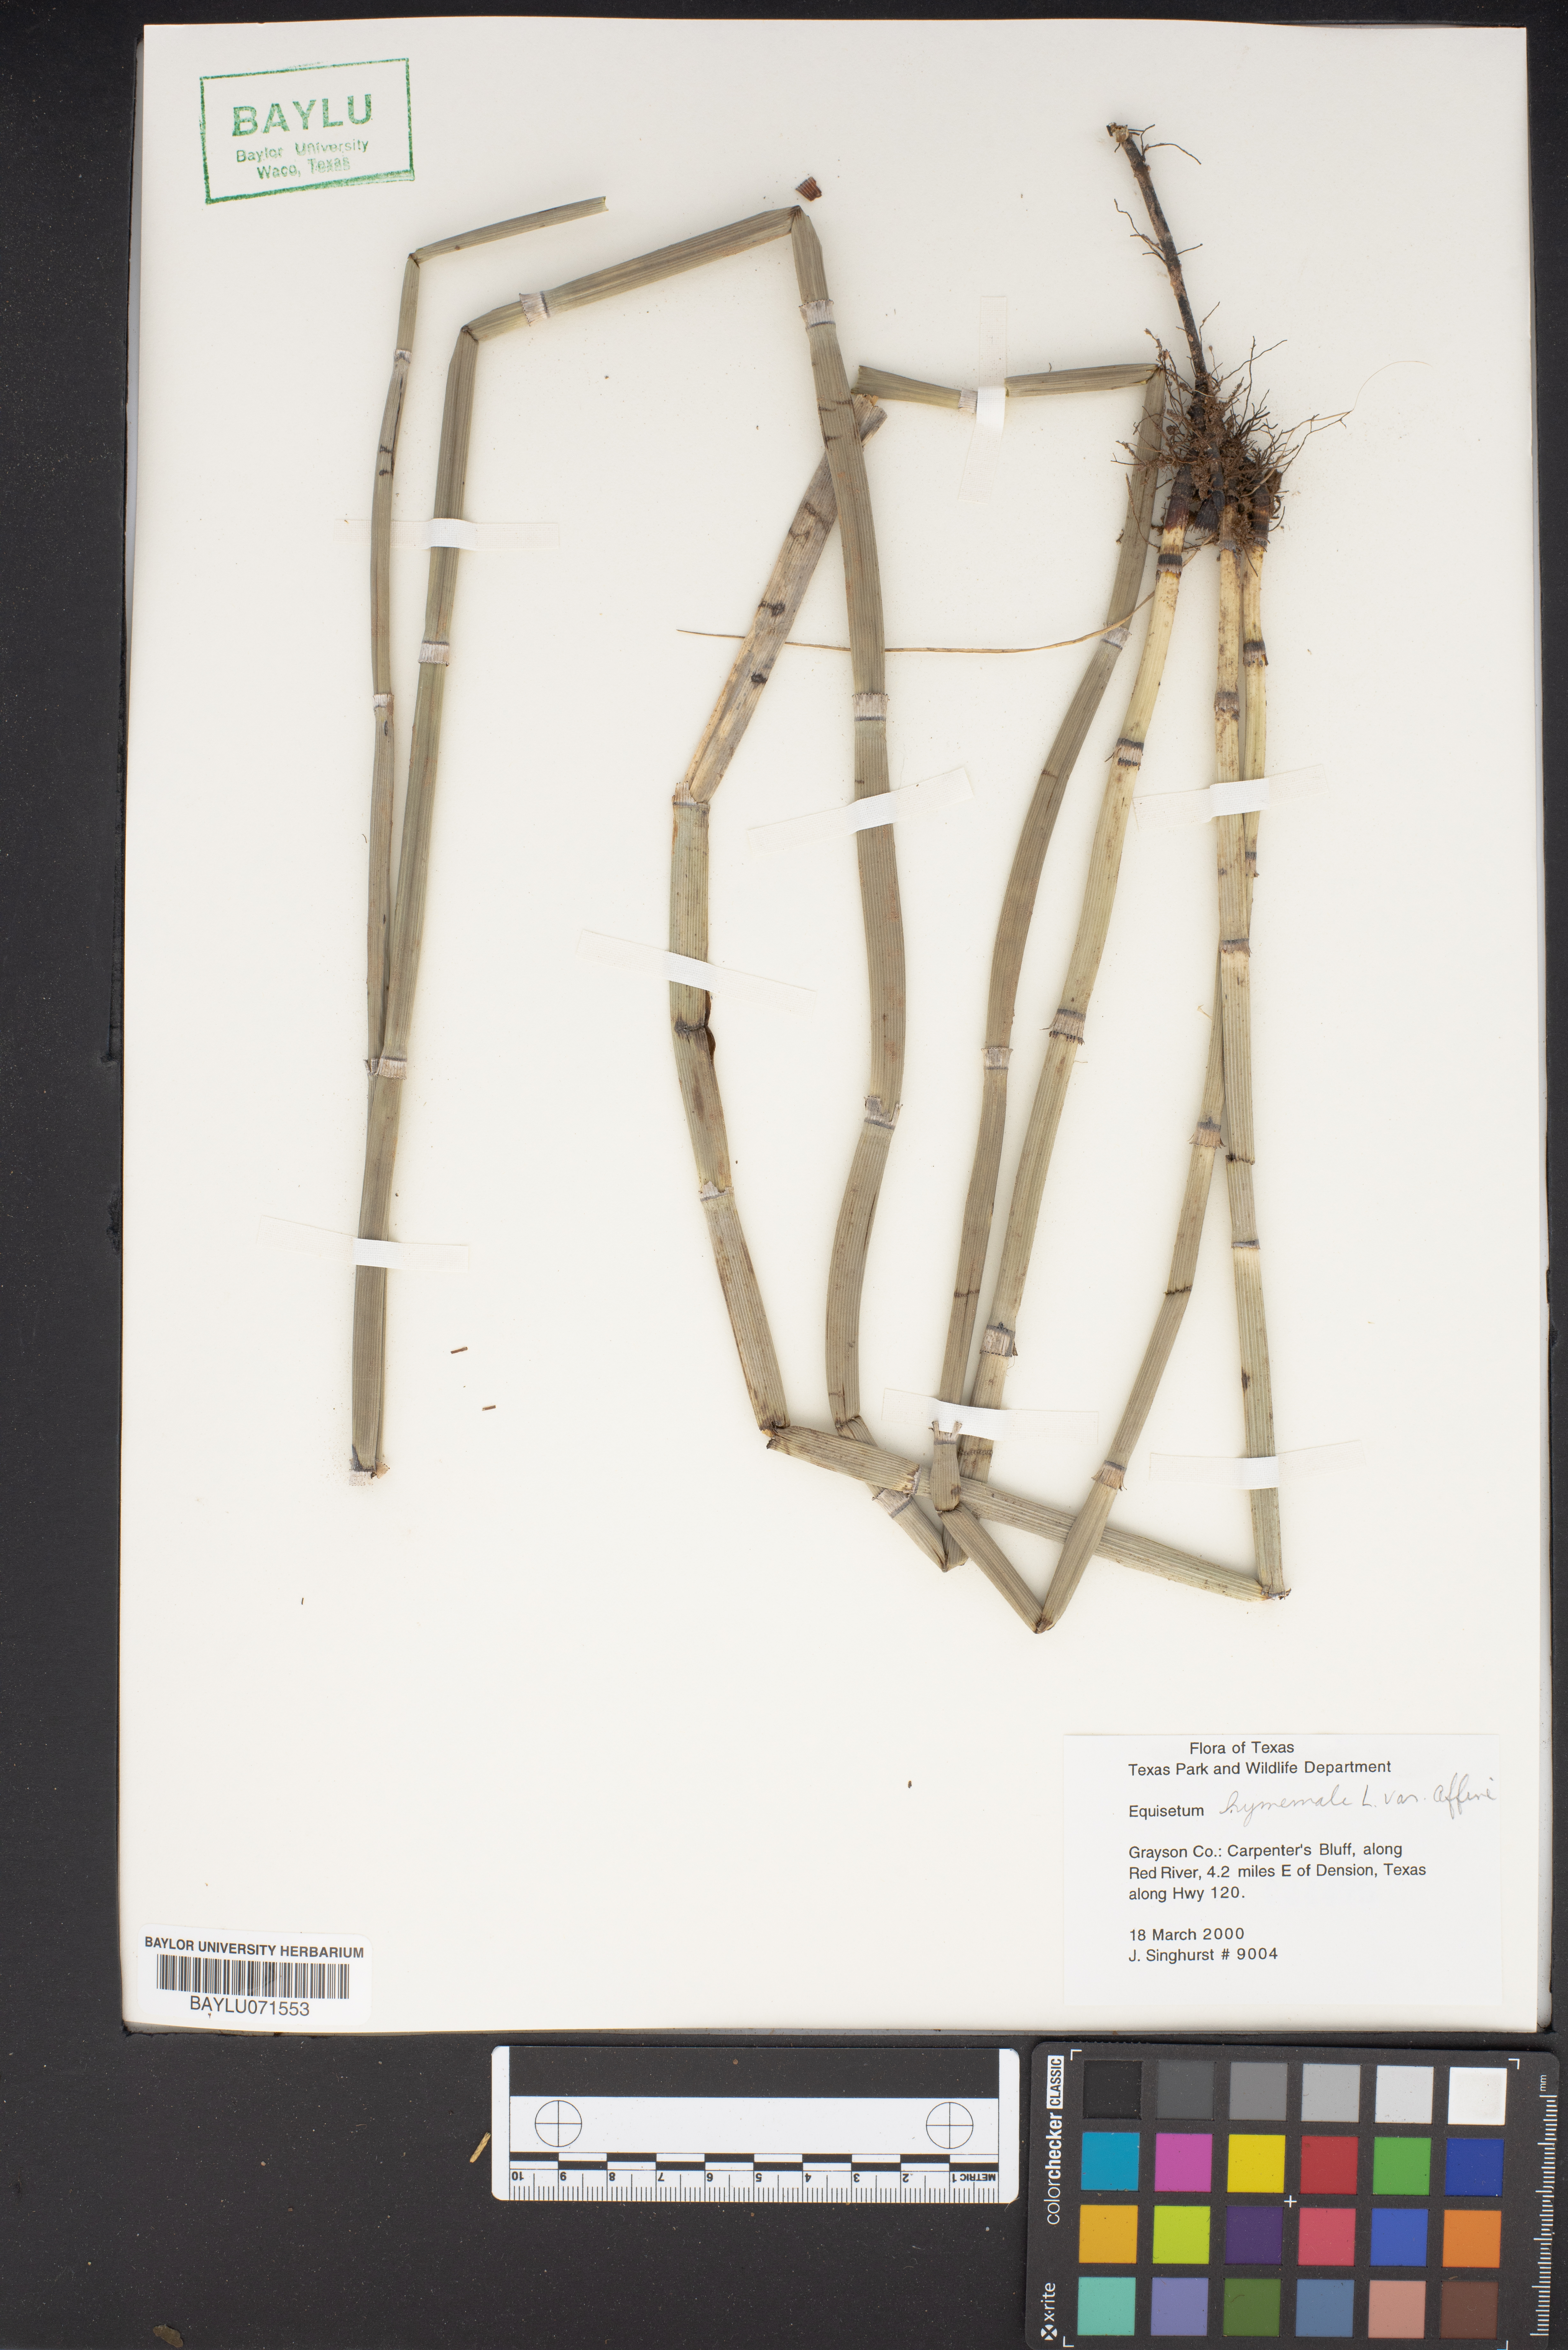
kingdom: Plantae
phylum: Tracheophyta
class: Polypodiopsida
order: Equisetales
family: Equisetaceae
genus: Equisetum
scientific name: Equisetum praealtum
